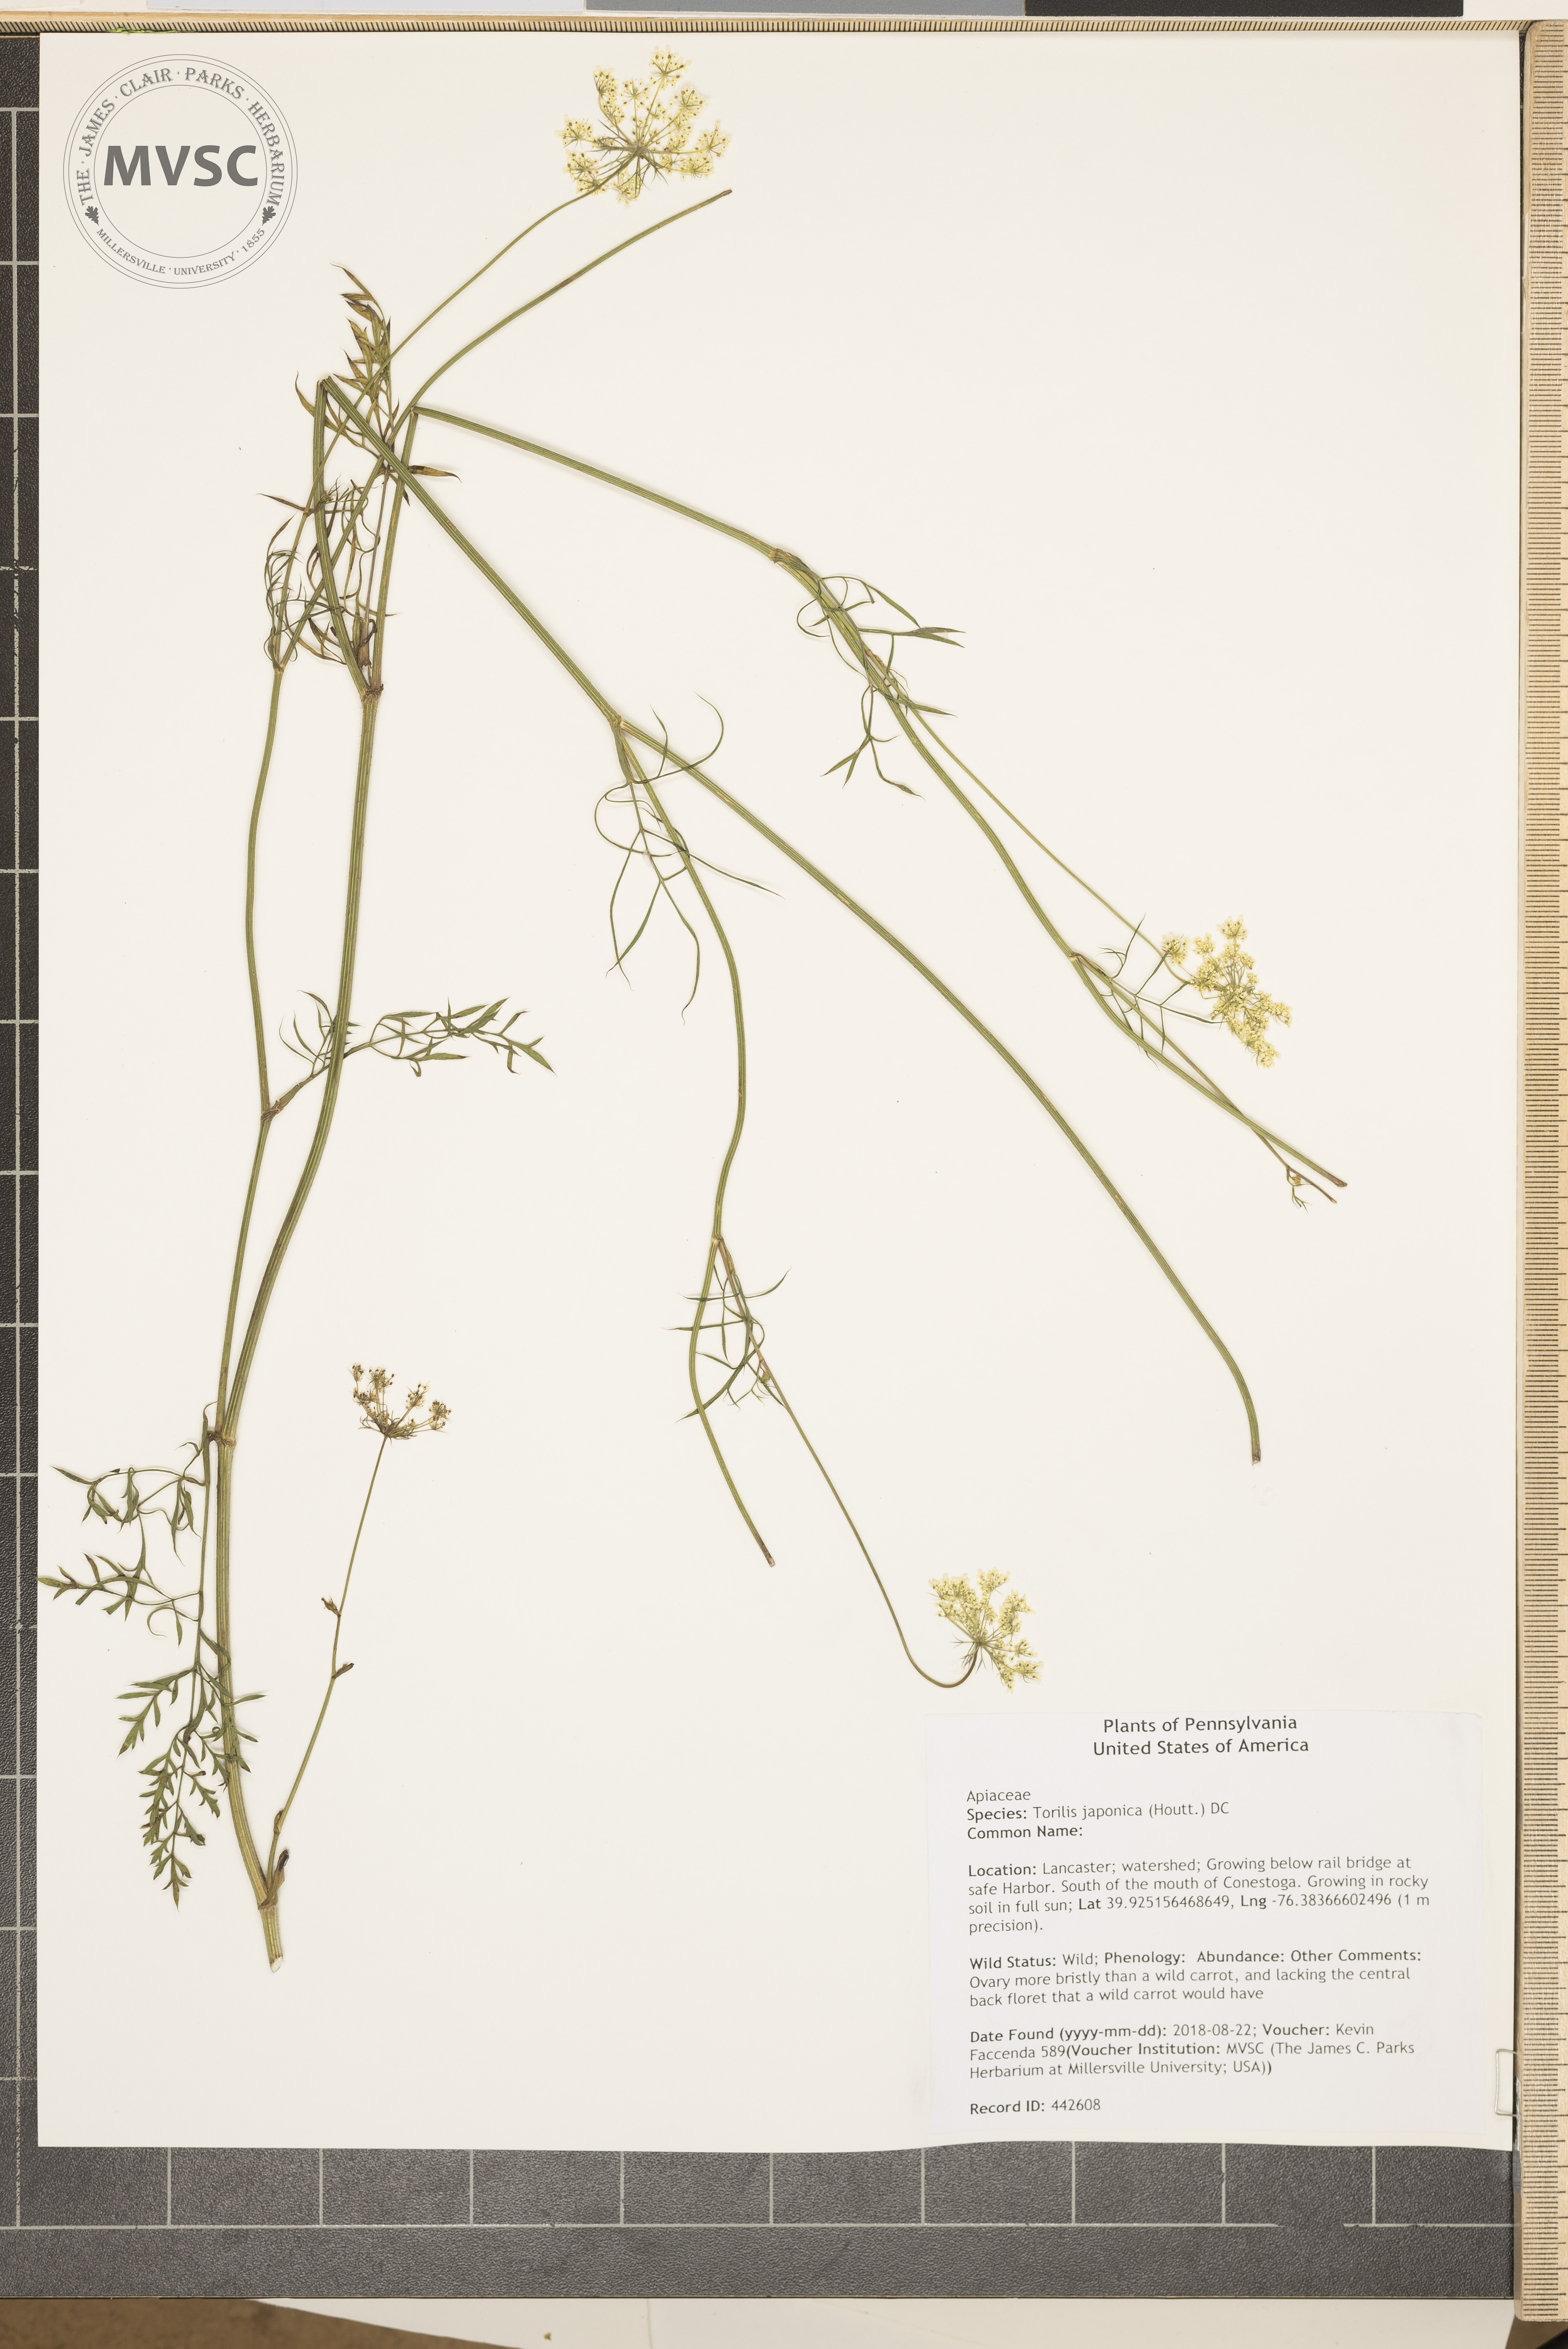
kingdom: Plantae
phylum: Tracheophyta
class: Magnoliopsida
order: Apiales
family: Apiaceae
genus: Torilis
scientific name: Torilis japonica
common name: Upright hedge-parsley
